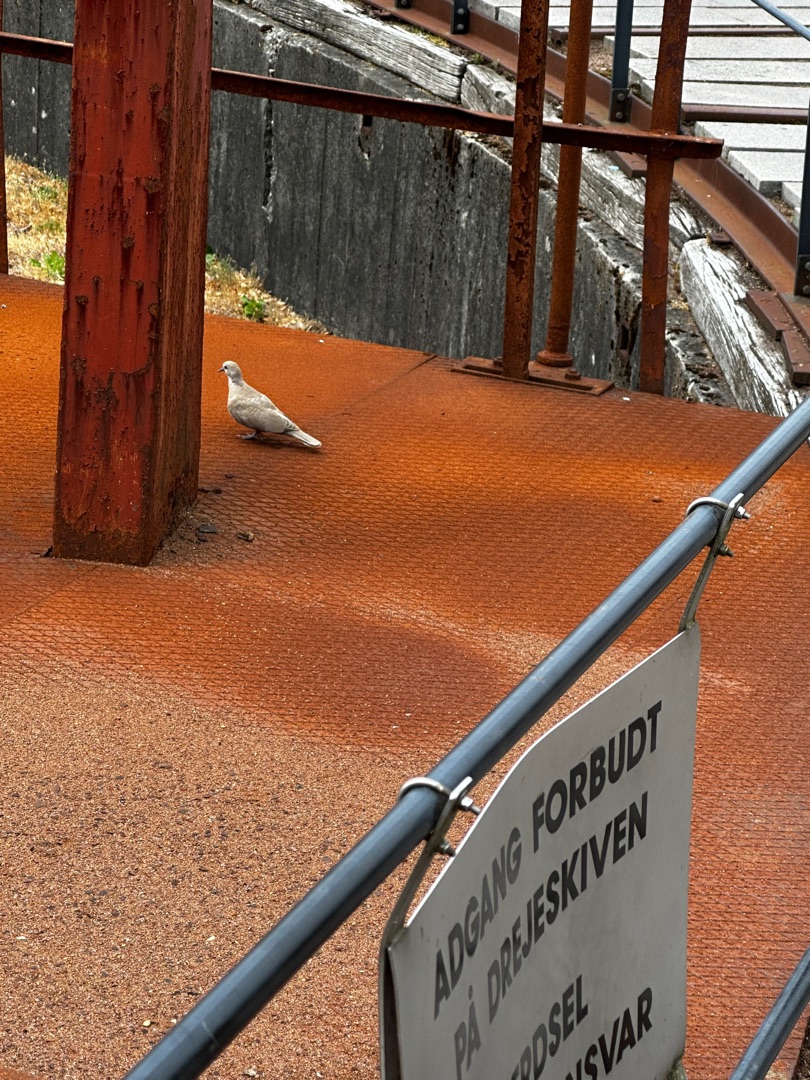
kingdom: Animalia
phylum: Chordata
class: Aves
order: Columbiformes
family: Columbidae
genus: Streptopelia
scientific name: Streptopelia decaocto
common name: Tyrkerdue
